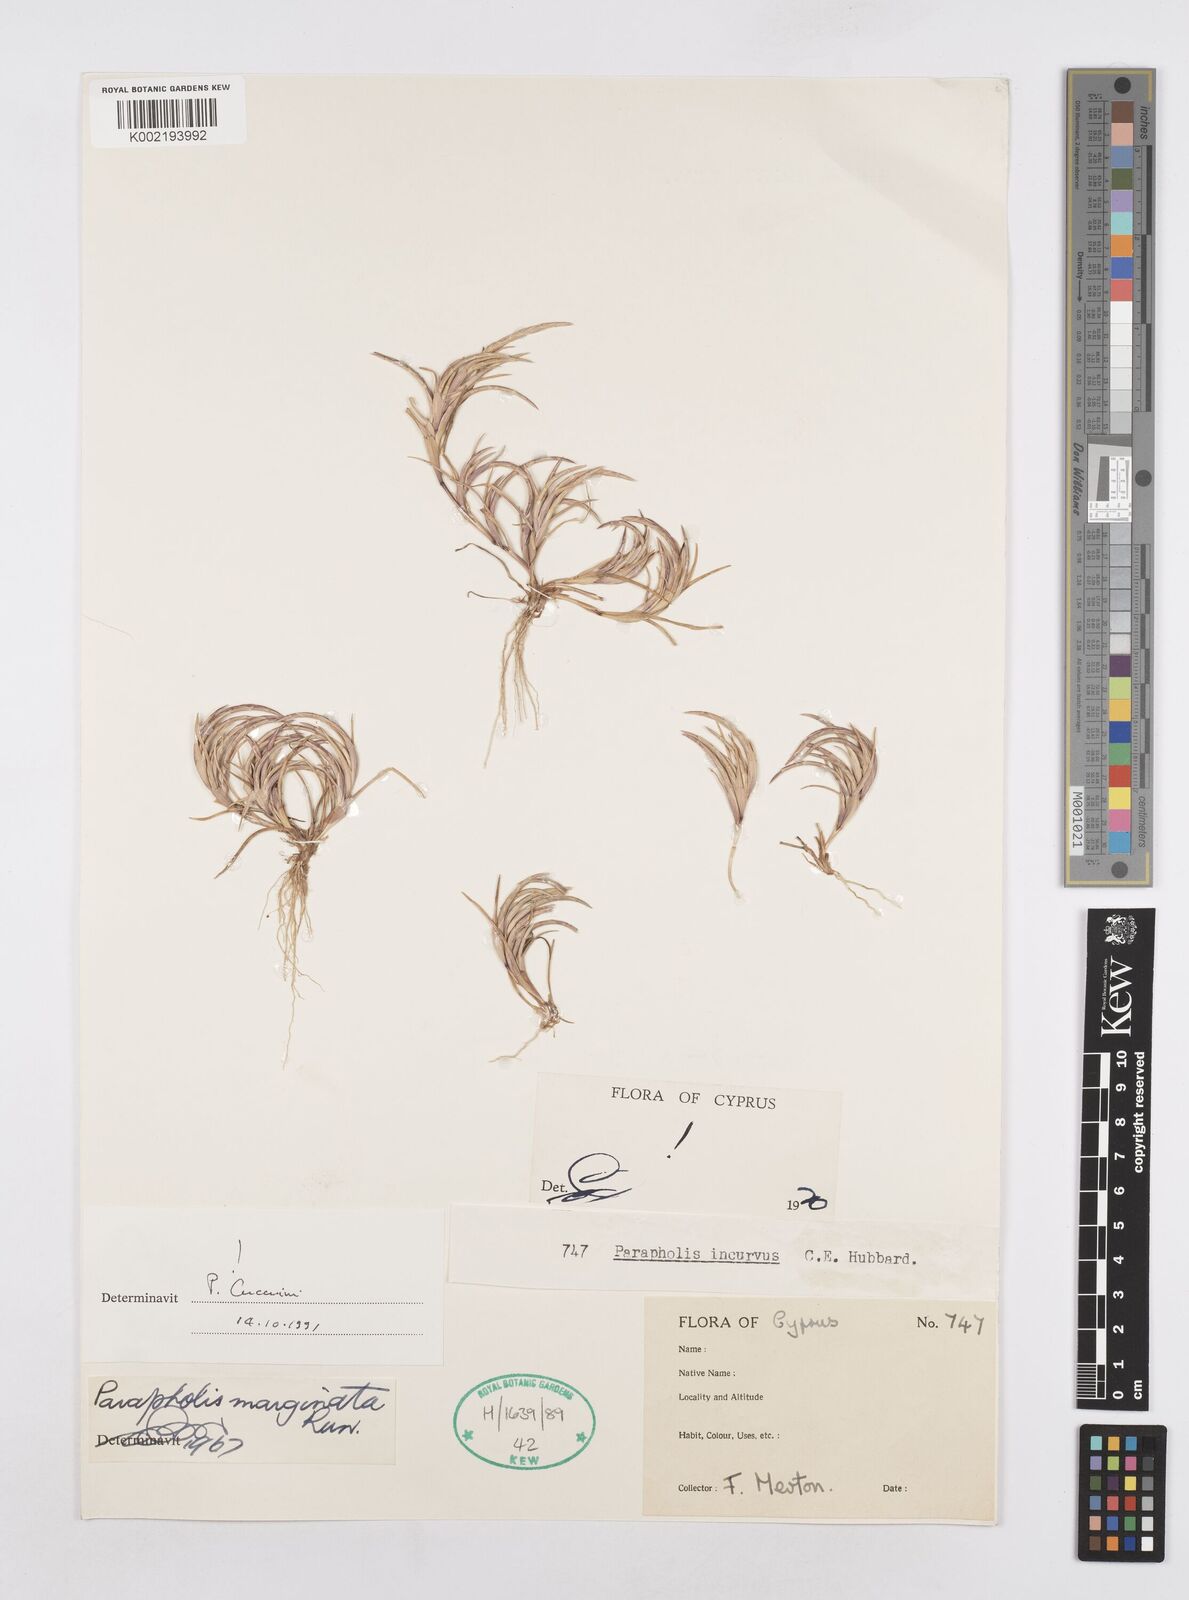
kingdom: Plantae
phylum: Tracheophyta
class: Liliopsida
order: Poales
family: Poaceae
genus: Parapholis
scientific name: Parapholis marginata
